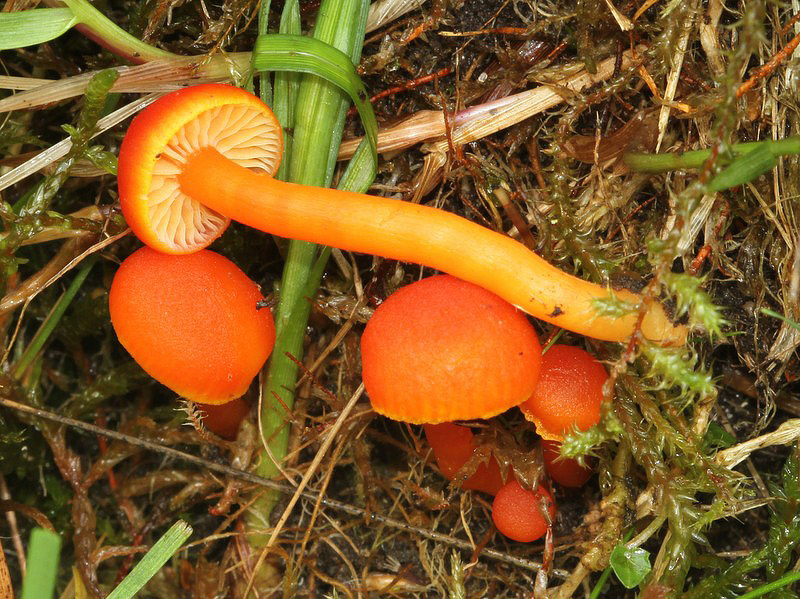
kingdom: Fungi
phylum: Basidiomycota
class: Agaricomycetes
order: Agaricales
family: Hygrophoraceae
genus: Hygrocybe
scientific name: Hygrocybe miniata
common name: mønje-vokshat
